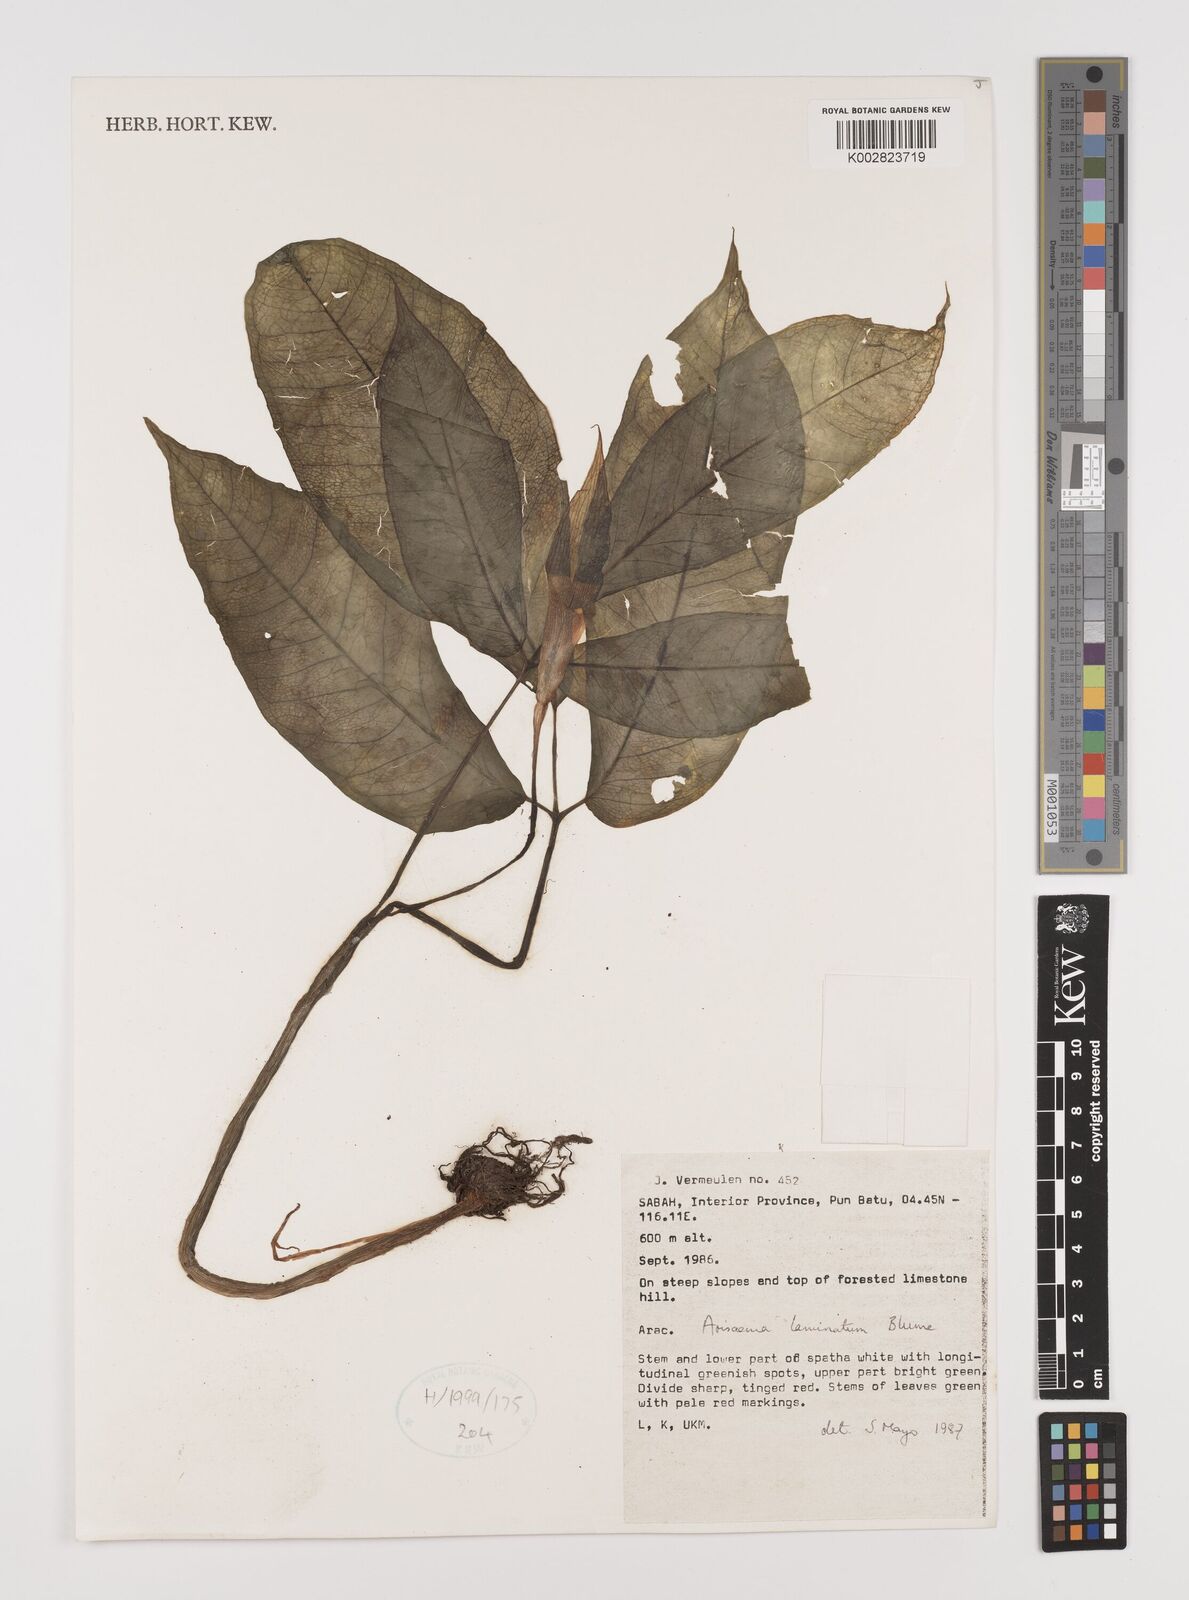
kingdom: Plantae
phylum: Tracheophyta
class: Liliopsida
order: Alismatales
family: Araceae
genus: Arisaema
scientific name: Arisaema laminatum
